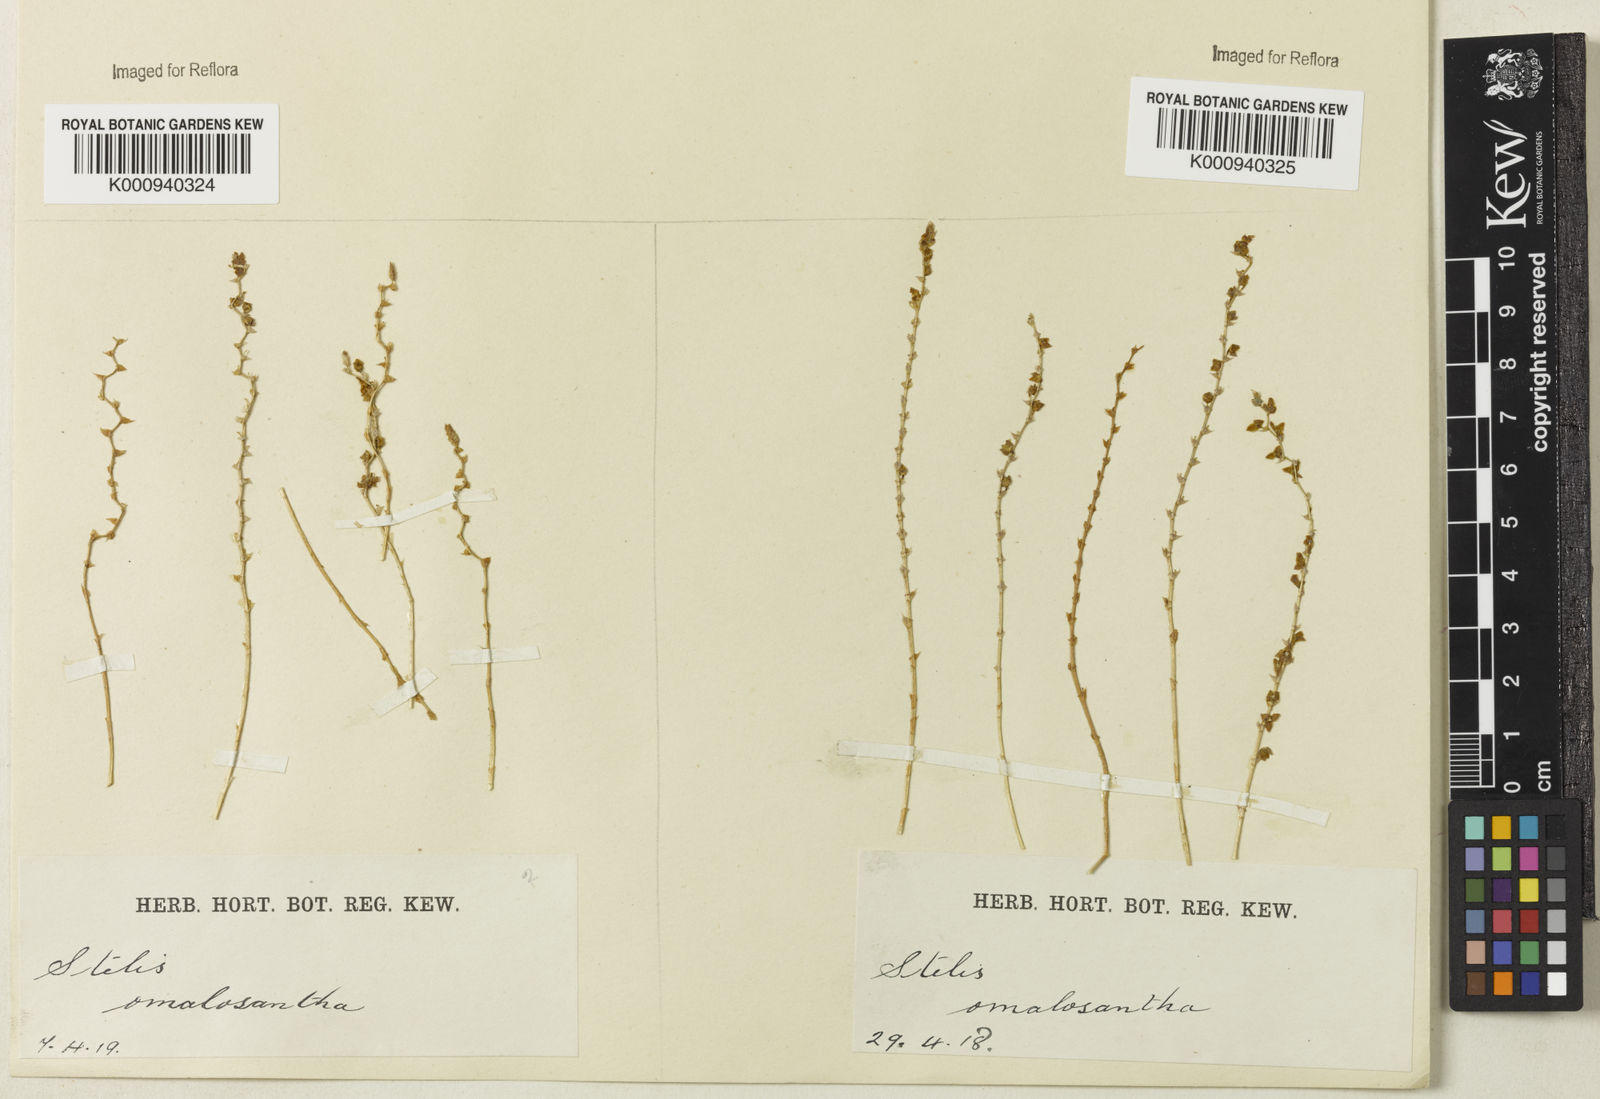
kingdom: Plantae
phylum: Tracheophyta
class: Liliopsida
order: Asparagales
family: Orchidaceae
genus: Stelis
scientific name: Stelis pauciflora
